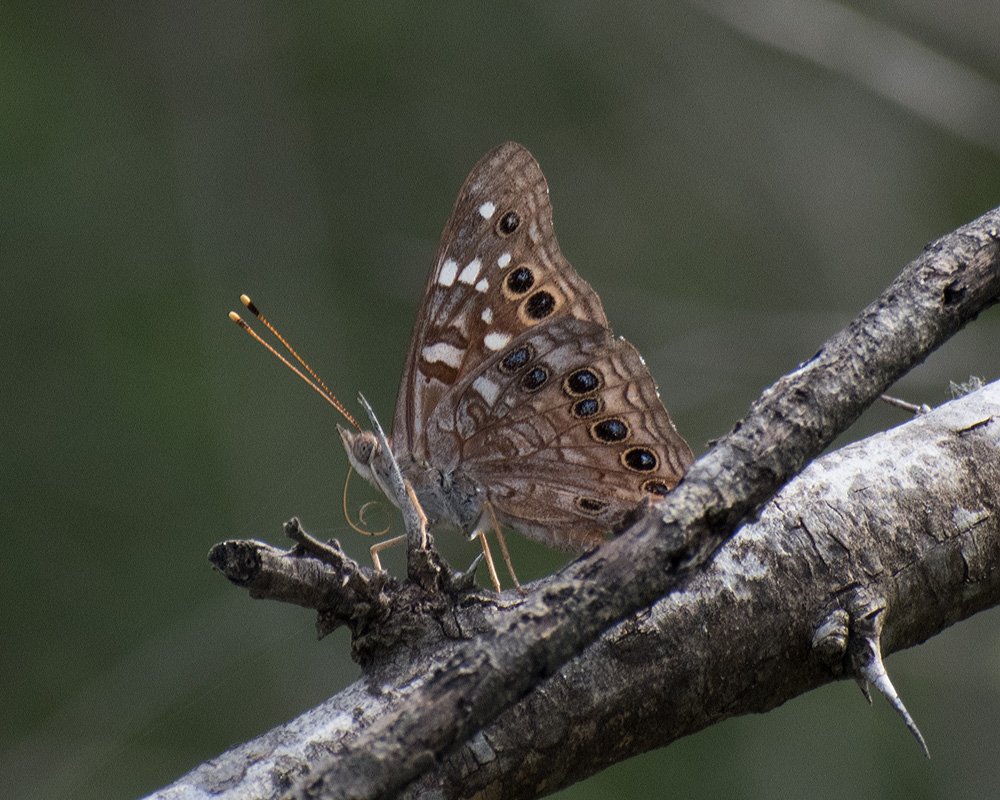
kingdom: Animalia
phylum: Arthropoda
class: Insecta
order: Lepidoptera
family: Nymphalidae
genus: Asterocampa
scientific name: Asterocampa leilia
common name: Empress Leilia
